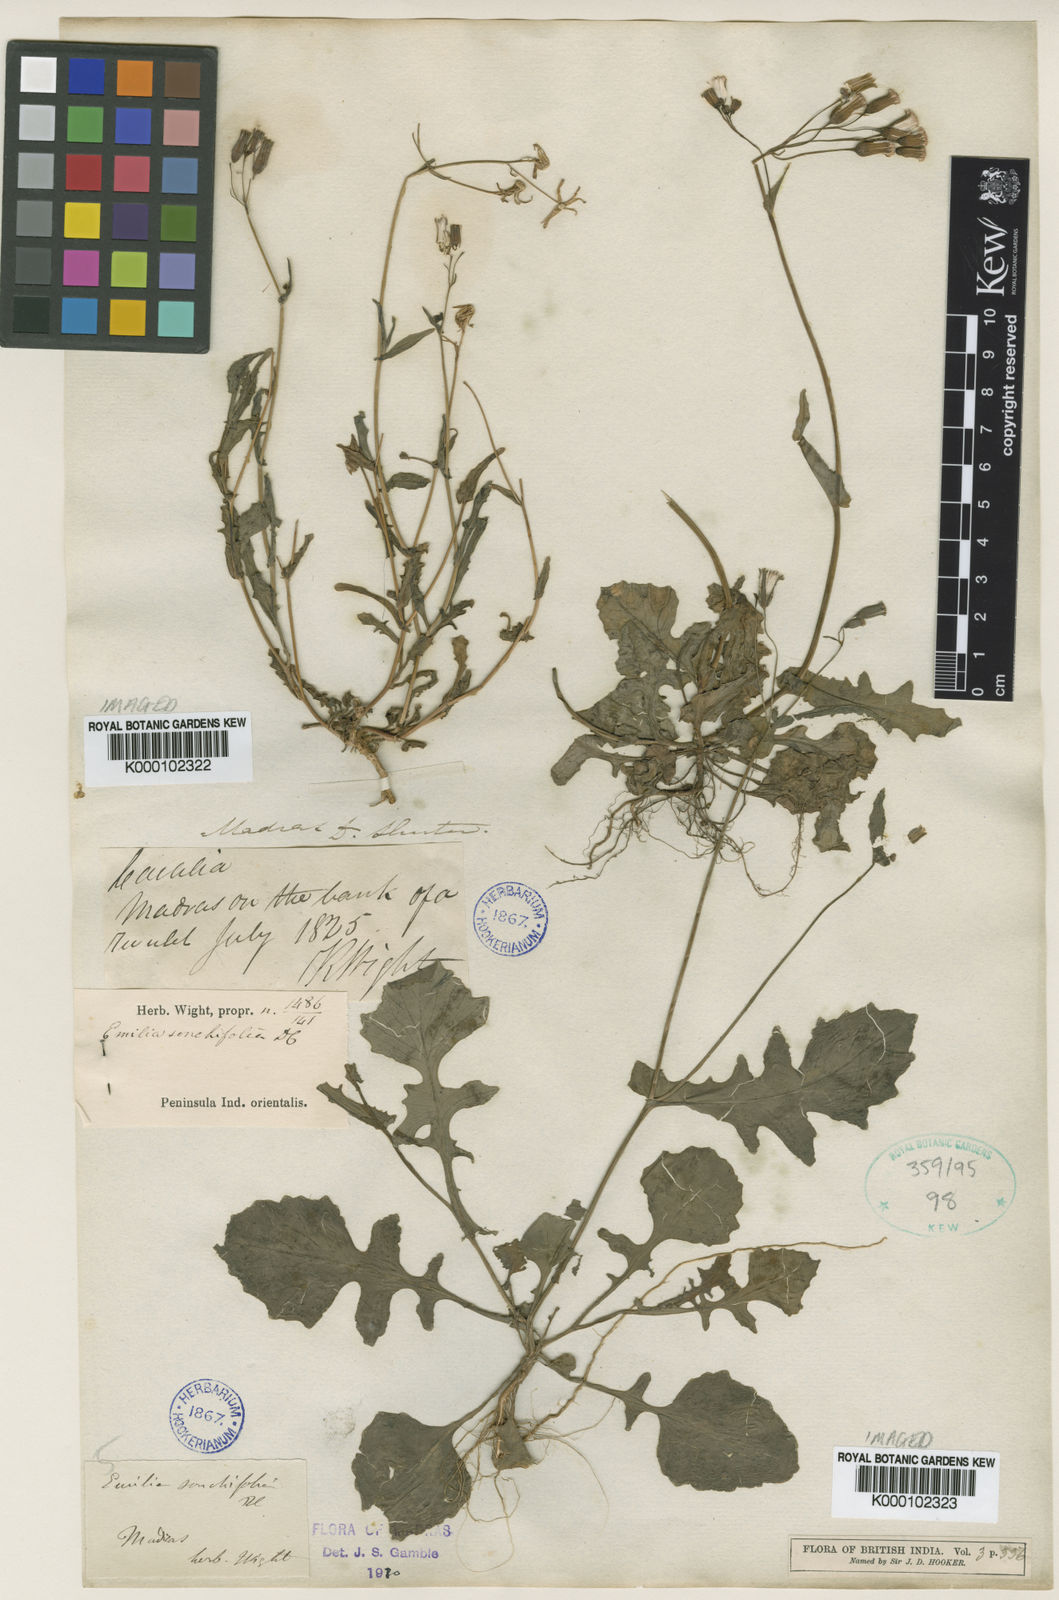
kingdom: Plantae
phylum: Tracheophyta
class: Magnoliopsida
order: Asterales
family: Asteraceae
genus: Emilia
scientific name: Emilia sonchifolia
